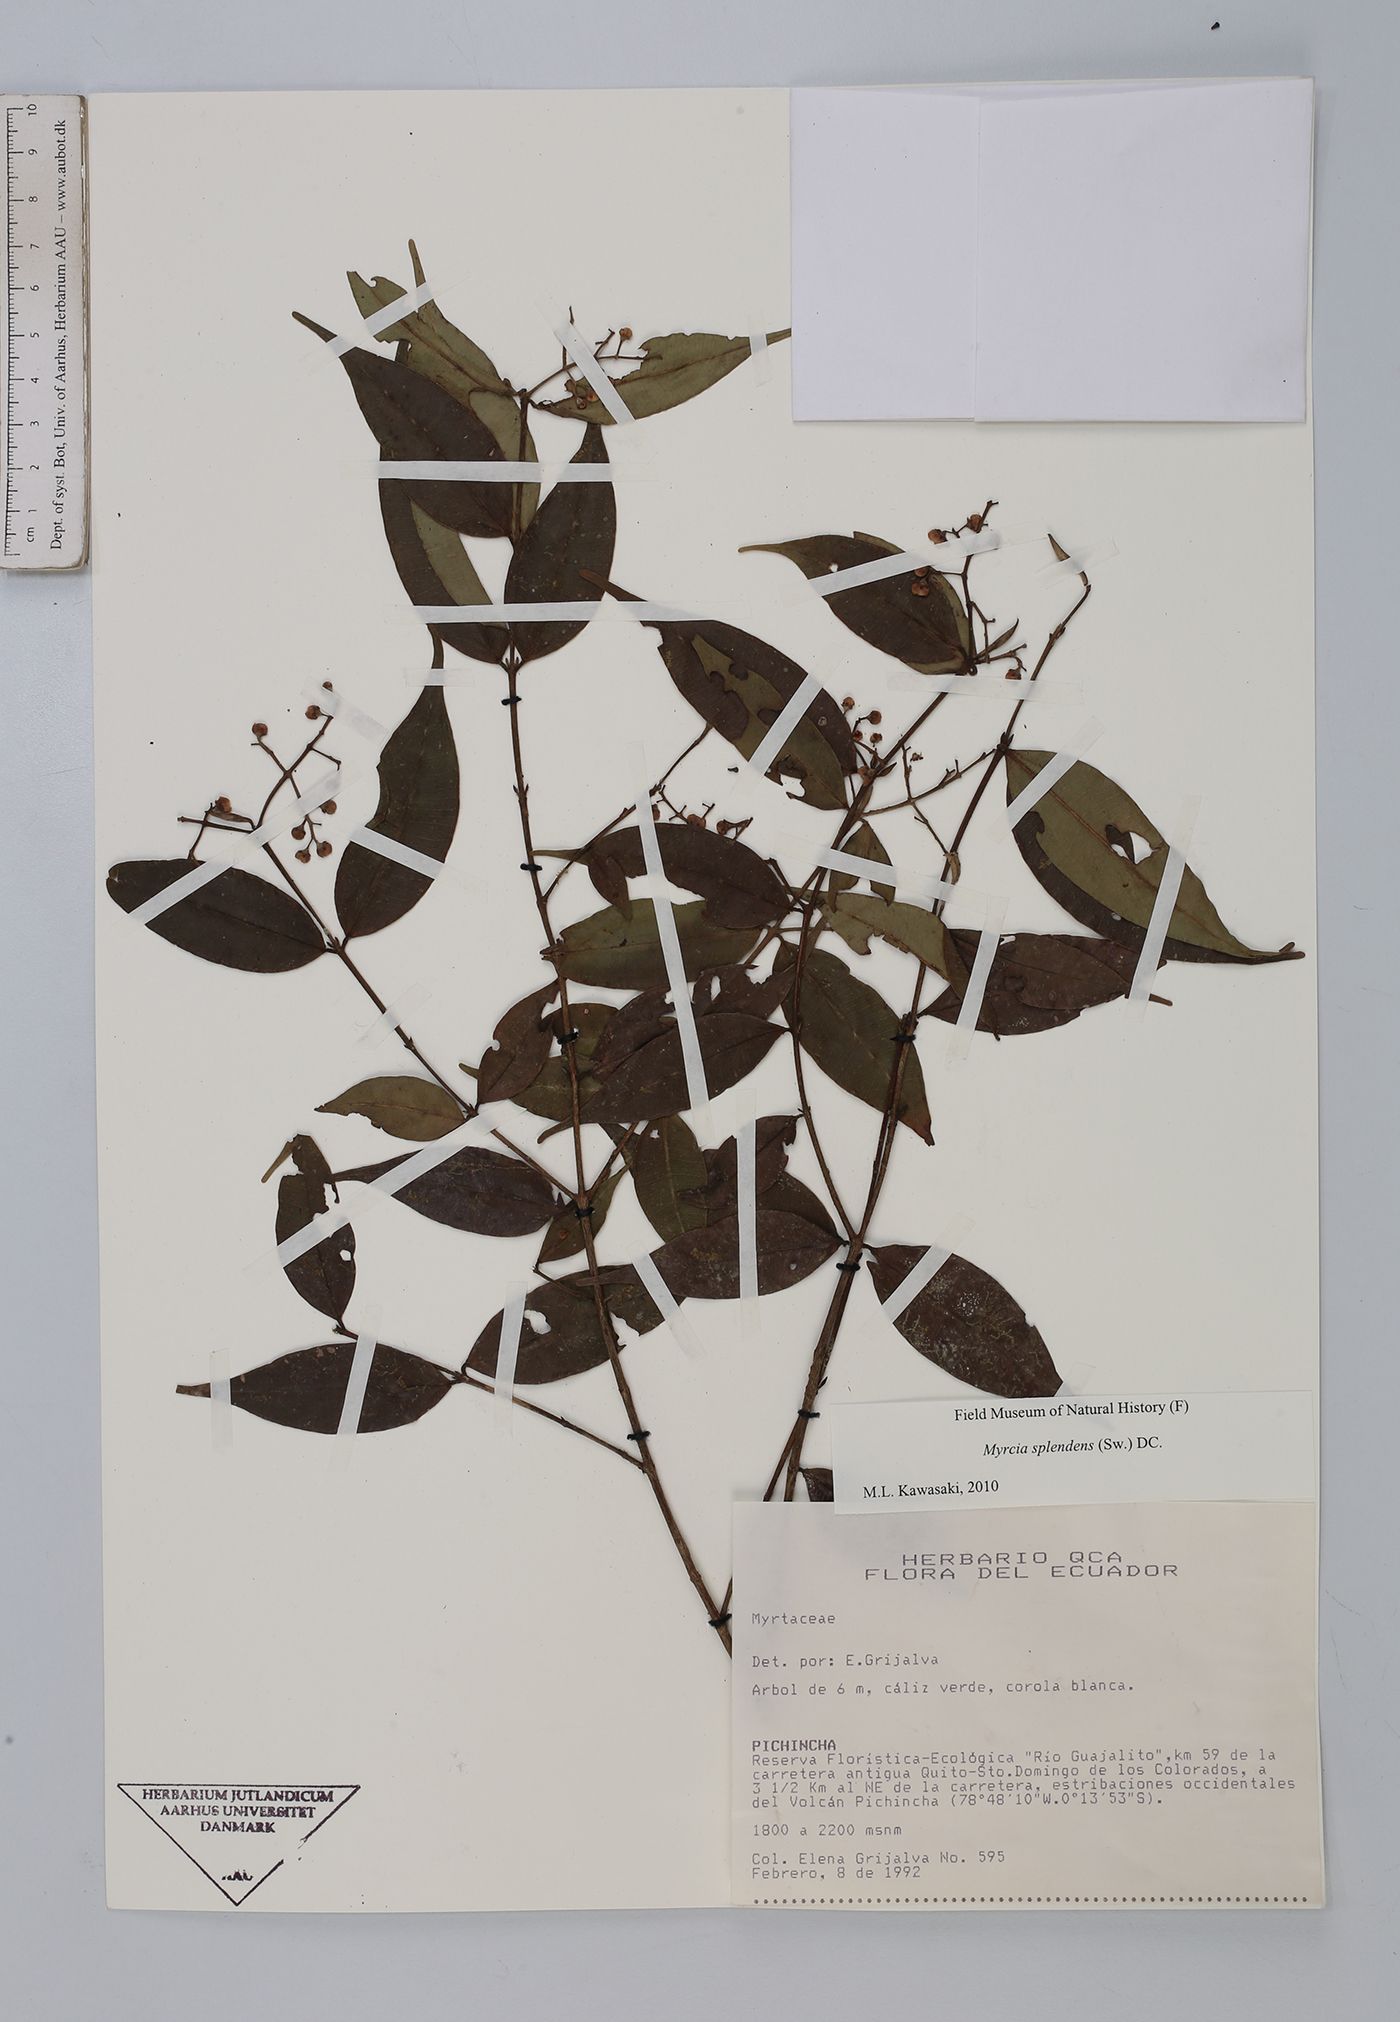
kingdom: Plantae
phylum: Tracheophyta
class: Magnoliopsida
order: Myrtales
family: Myrtaceae
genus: Myrcia
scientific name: Myrcia splendens
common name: Surinam cherry
